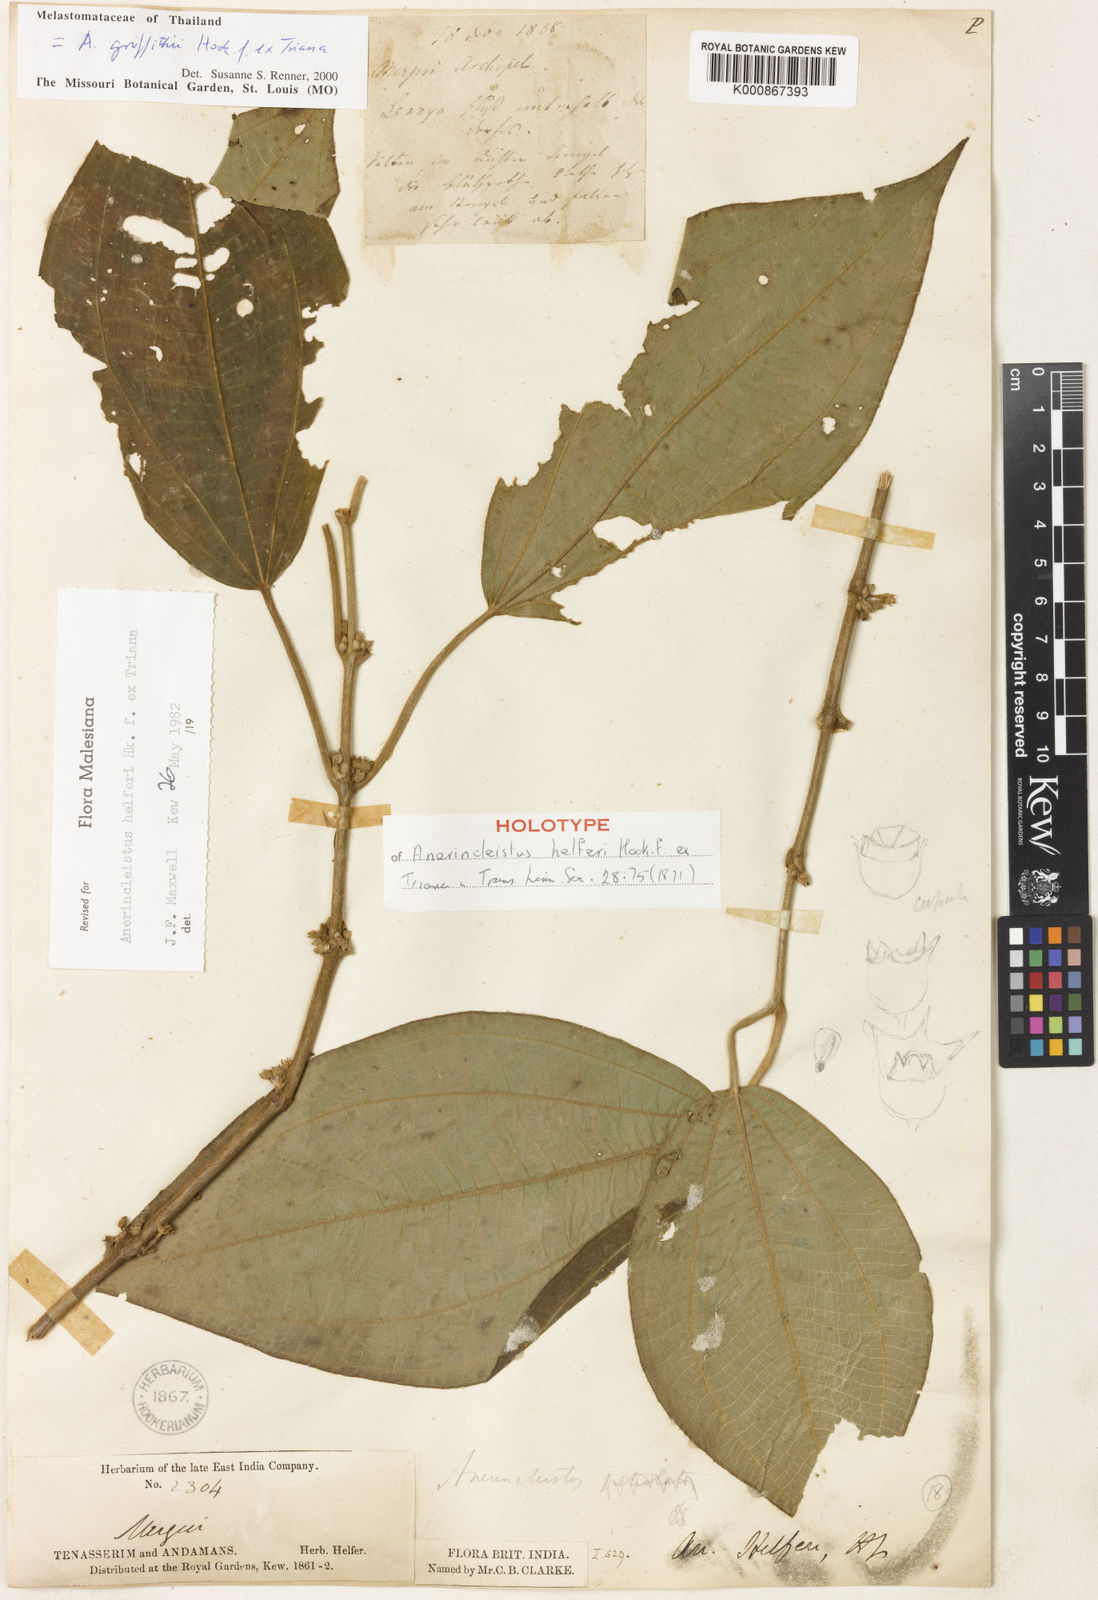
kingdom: Plantae
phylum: Tracheophyta
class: Magnoliopsida
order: Myrtales
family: Melastomataceae
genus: Anerincleistus
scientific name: Anerincleistus griffithii
